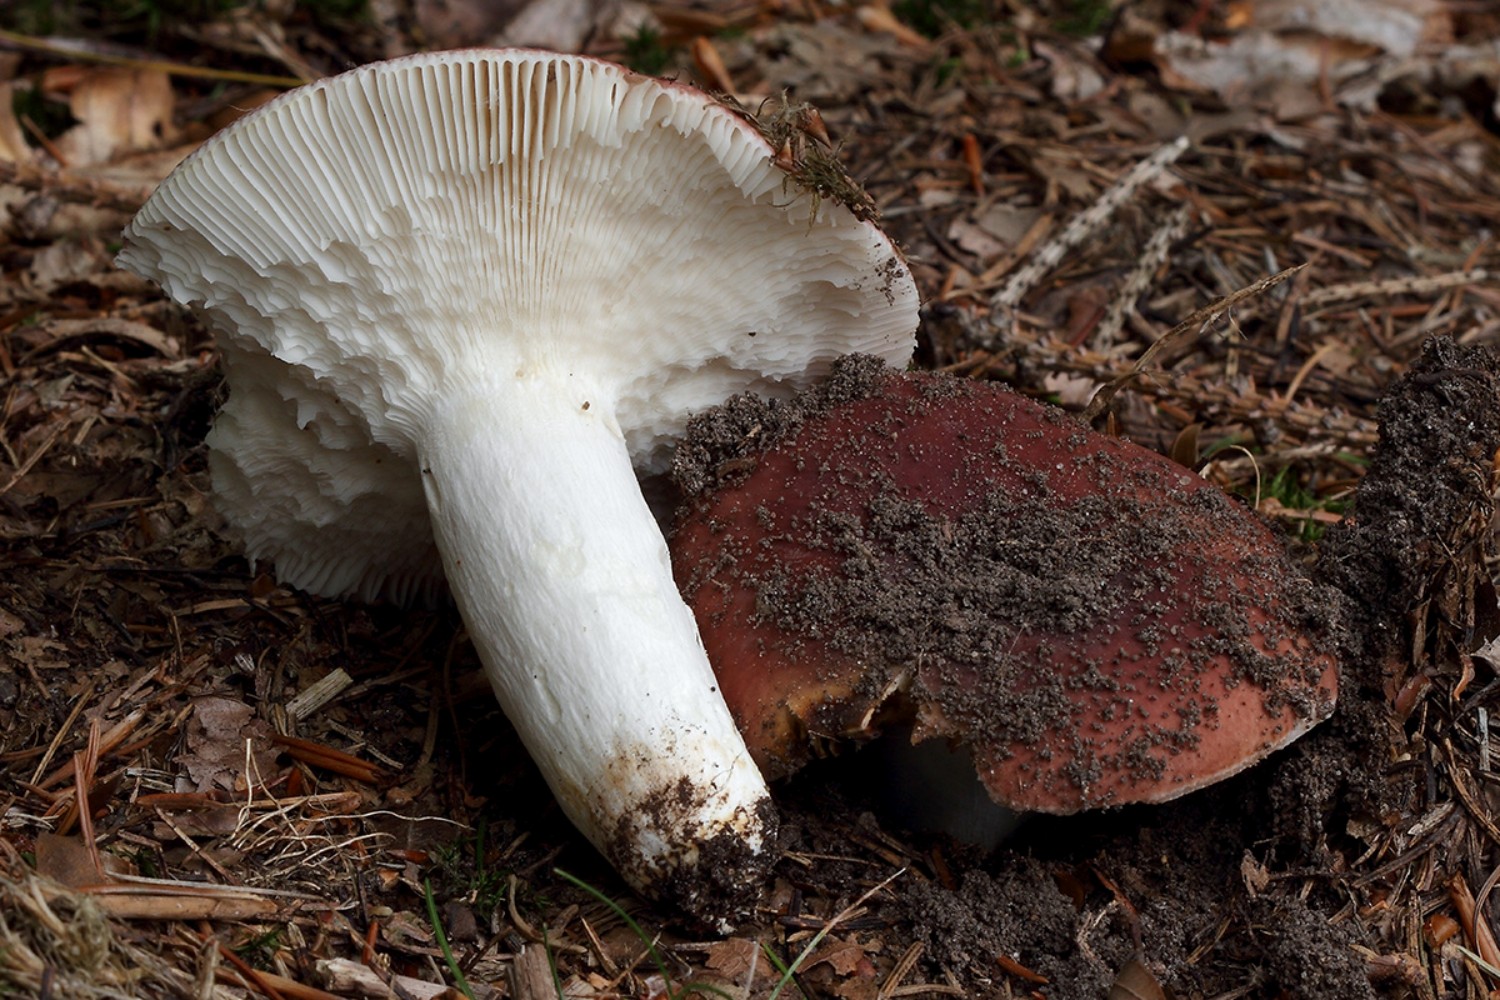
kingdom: Fungi
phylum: Basidiomycota
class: Agaricomycetes
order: Russulales
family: Russulaceae
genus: Russula
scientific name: Russula vesca
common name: spiselig skørhat
